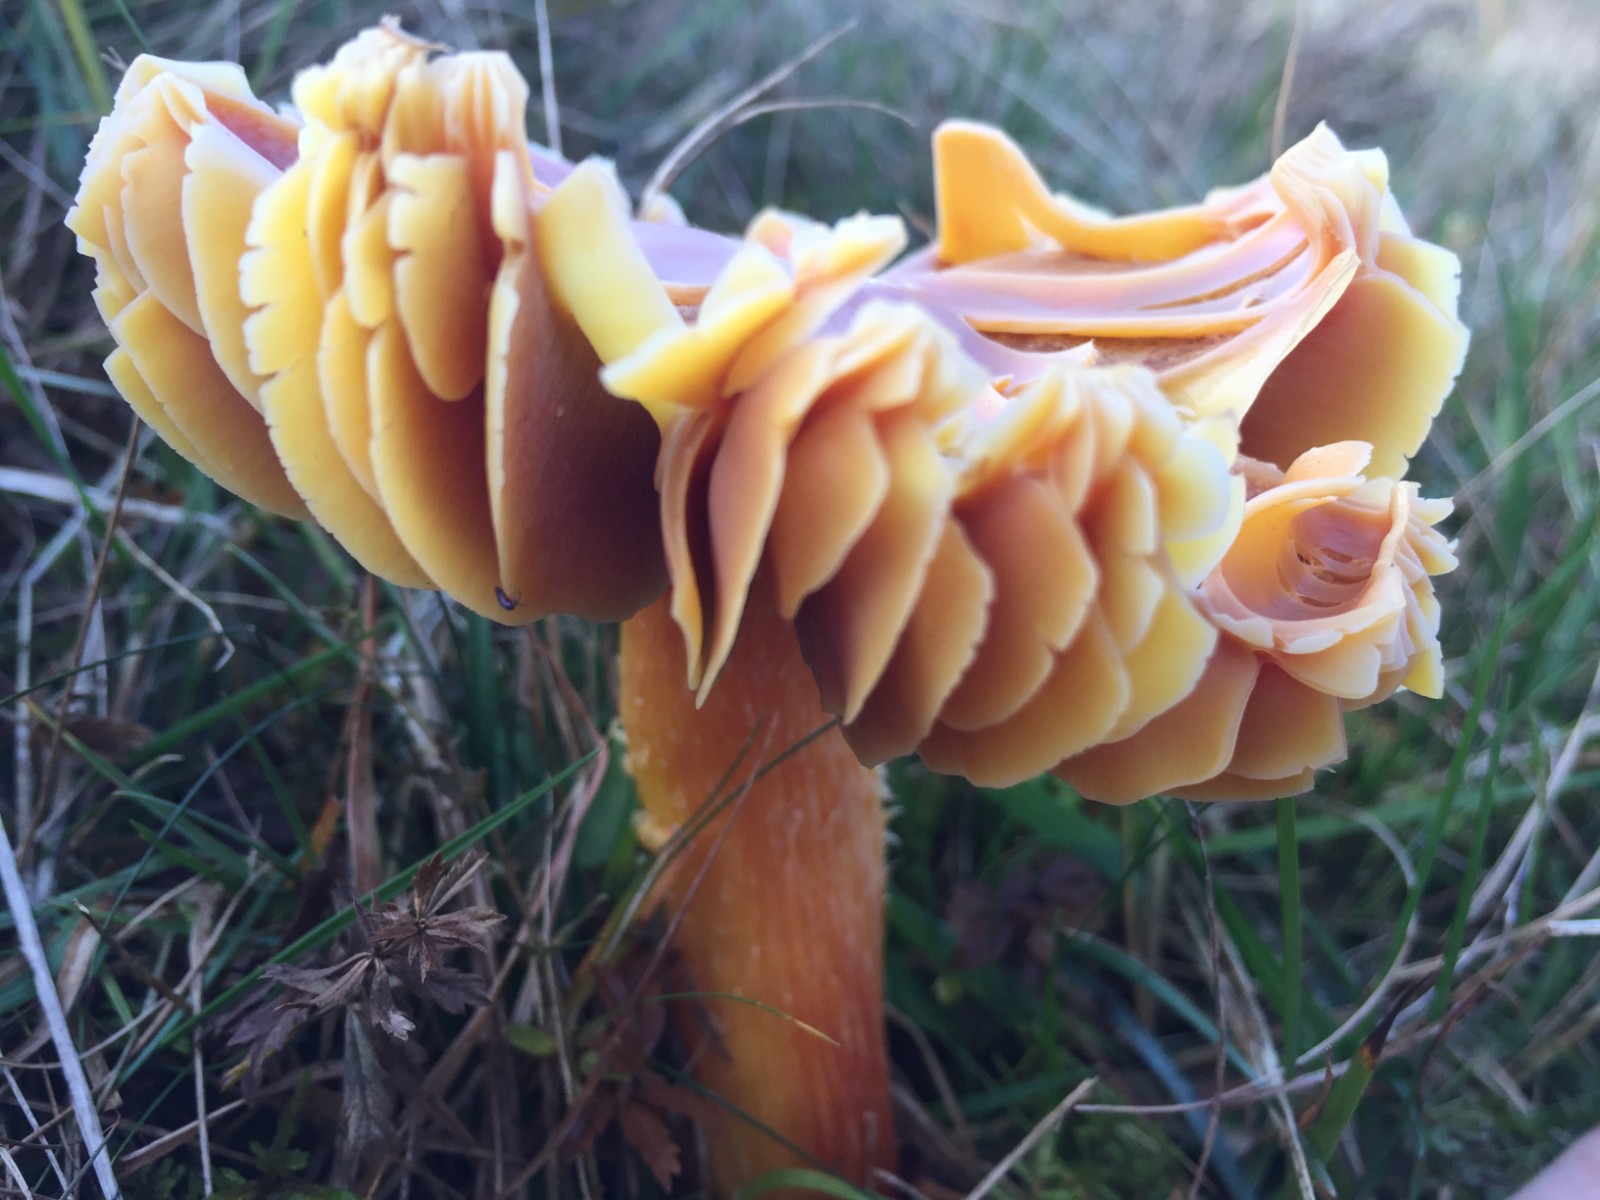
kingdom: Fungi
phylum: Basidiomycota
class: Agaricomycetes
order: Agaricales
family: Hygrophoraceae
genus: Hygrocybe
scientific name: Hygrocybe punicea
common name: skarlagen-vokshat
